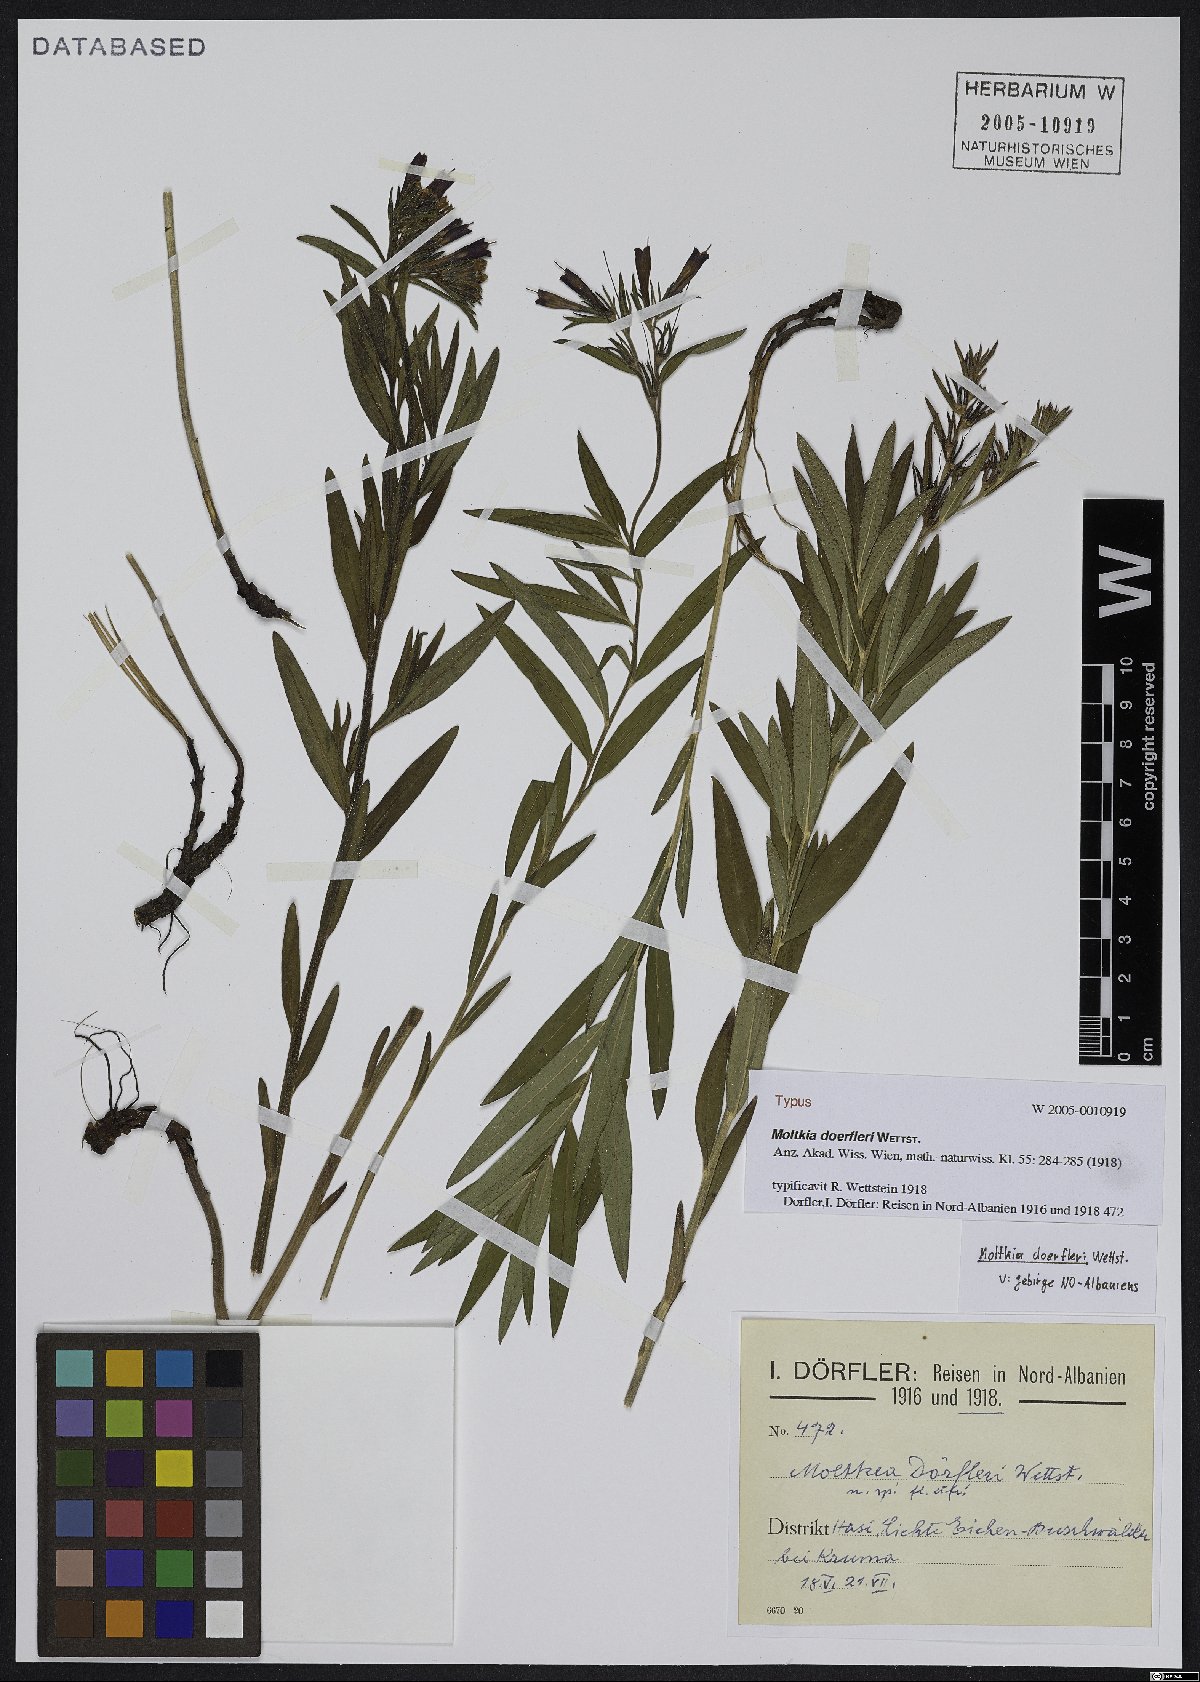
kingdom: Plantae
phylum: Tracheophyta
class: Magnoliopsida
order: Boraginales
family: Boraginaceae
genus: Paramoltkia
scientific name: Paramoltkia doerfleri
